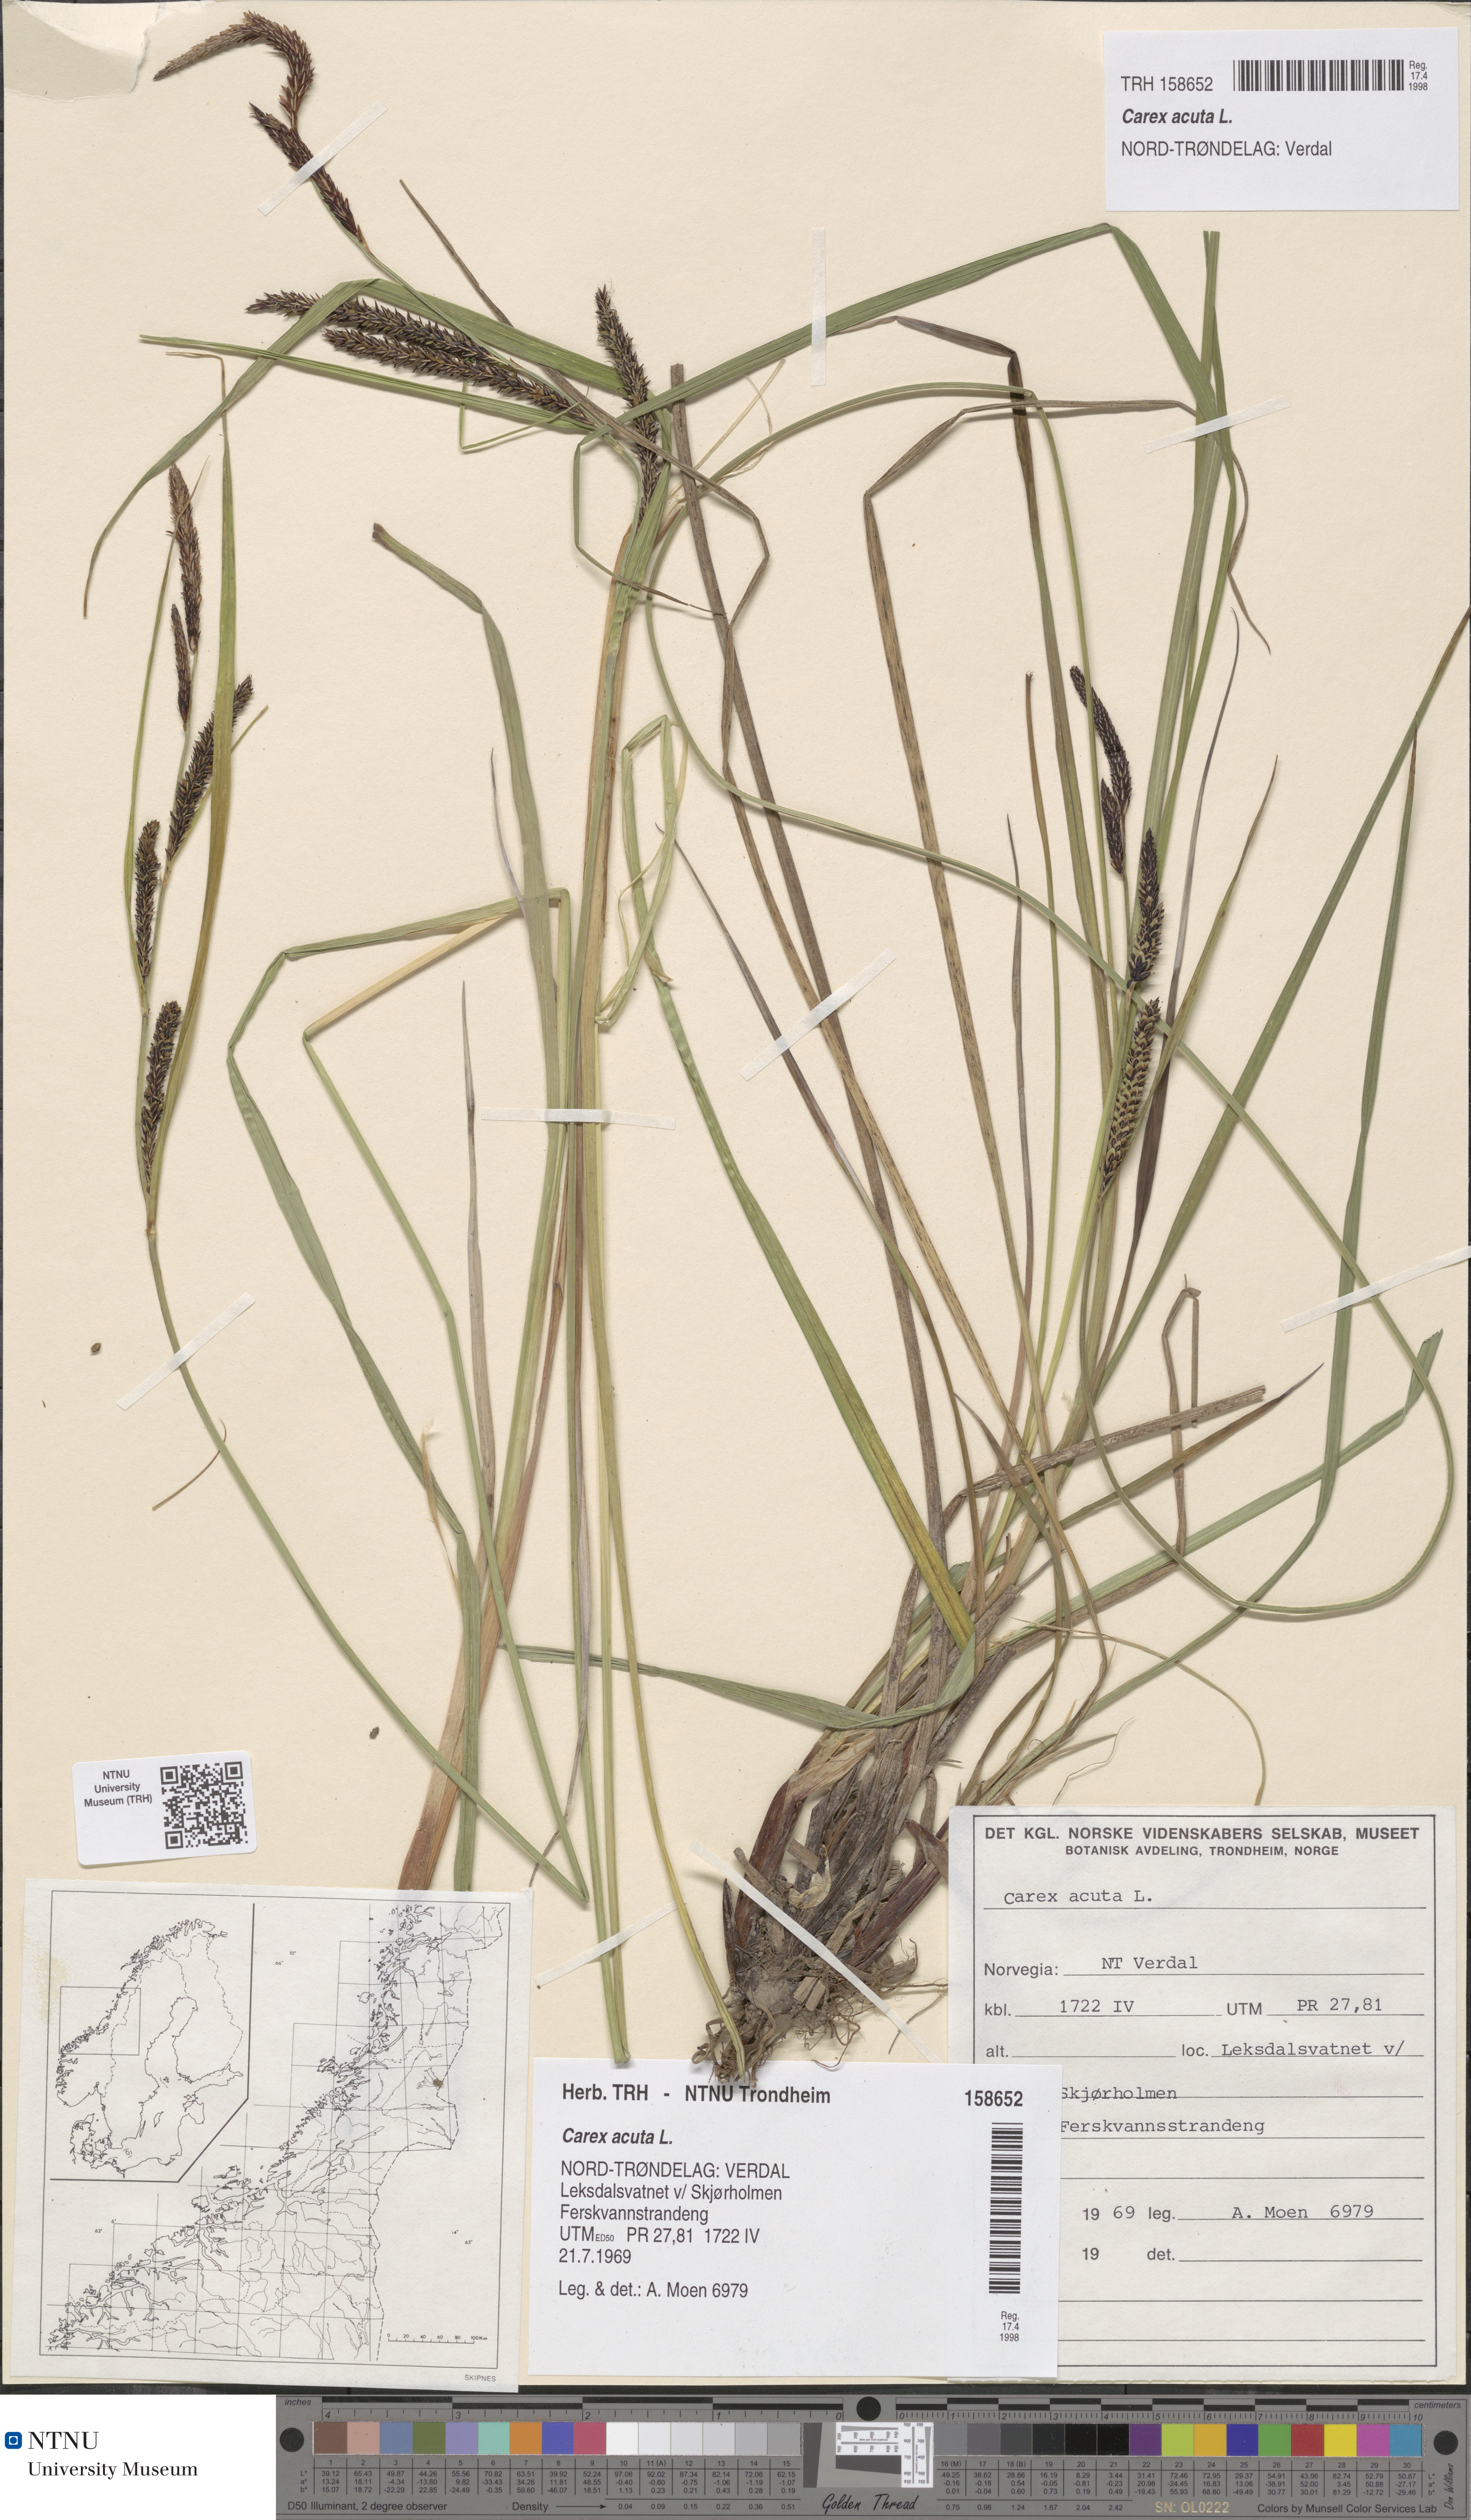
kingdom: Plantae
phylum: Tracheophyta
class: Liliopsida
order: Poales
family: Cyperaceae
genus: Carex
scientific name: Carex acuta
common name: Slender tufted-sedge
